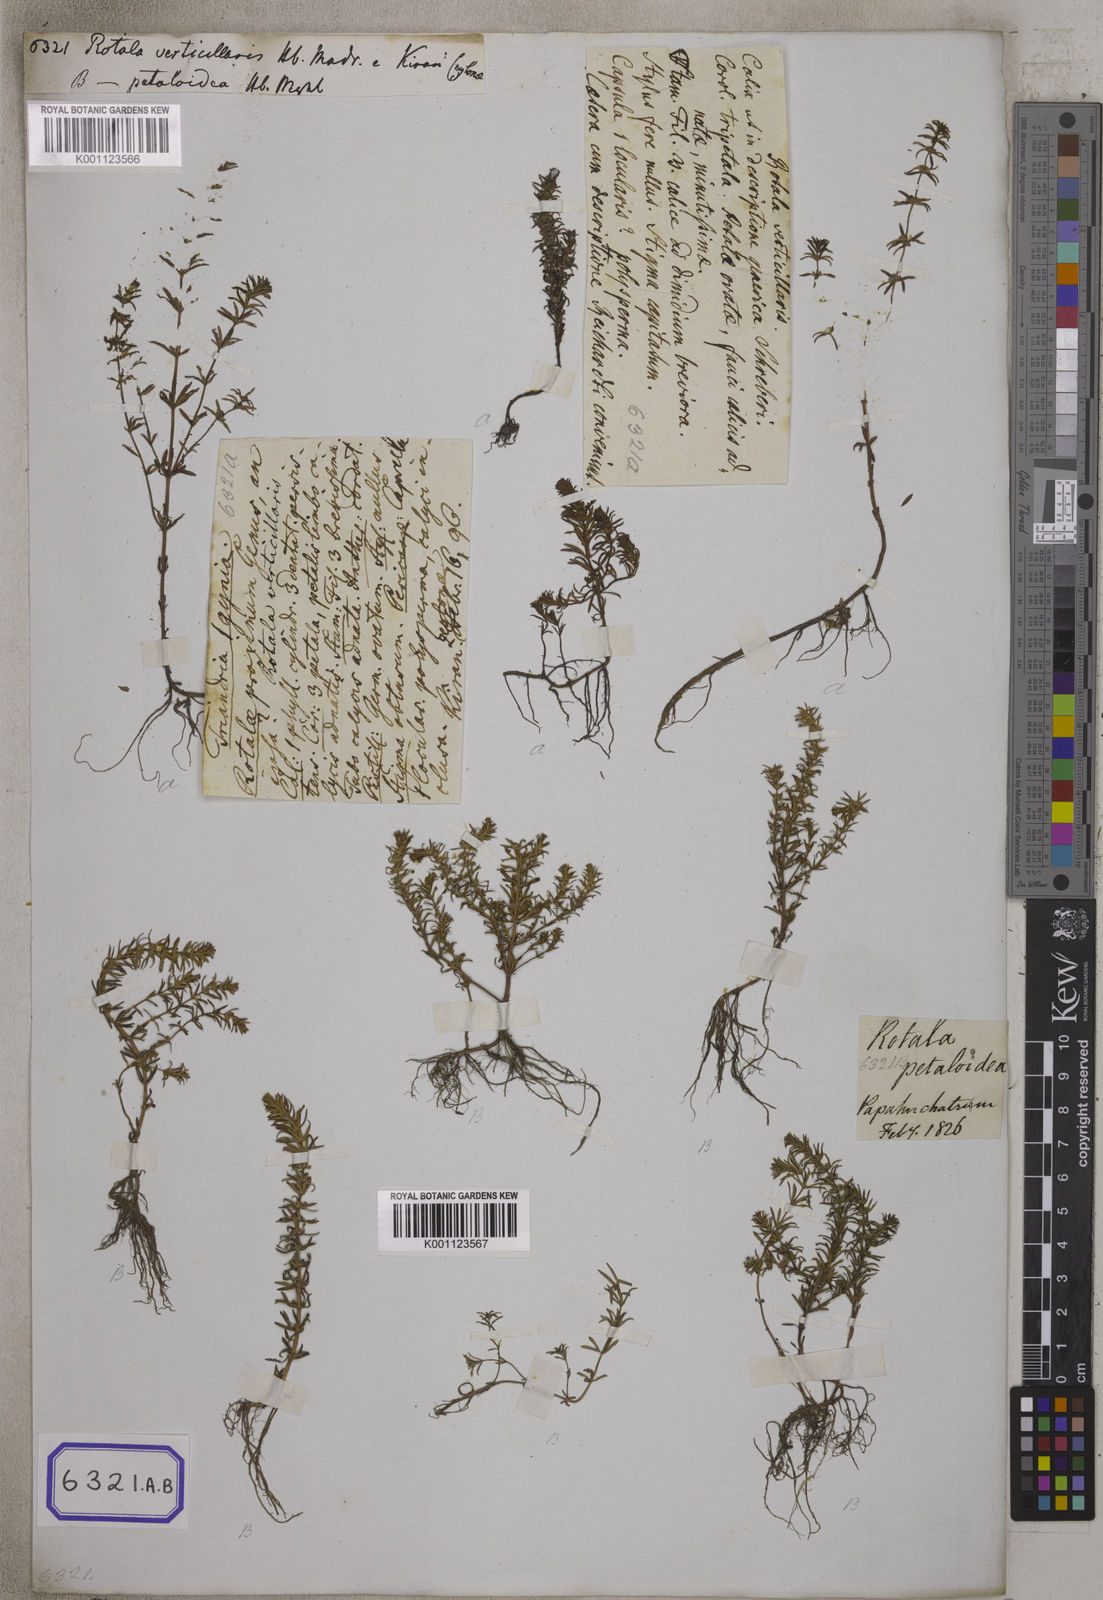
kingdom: Plantae
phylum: Tracheophyta
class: Magnoliopsida
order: Myrtales
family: Lythraceae
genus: Rotala
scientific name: Rotala verticillaris
